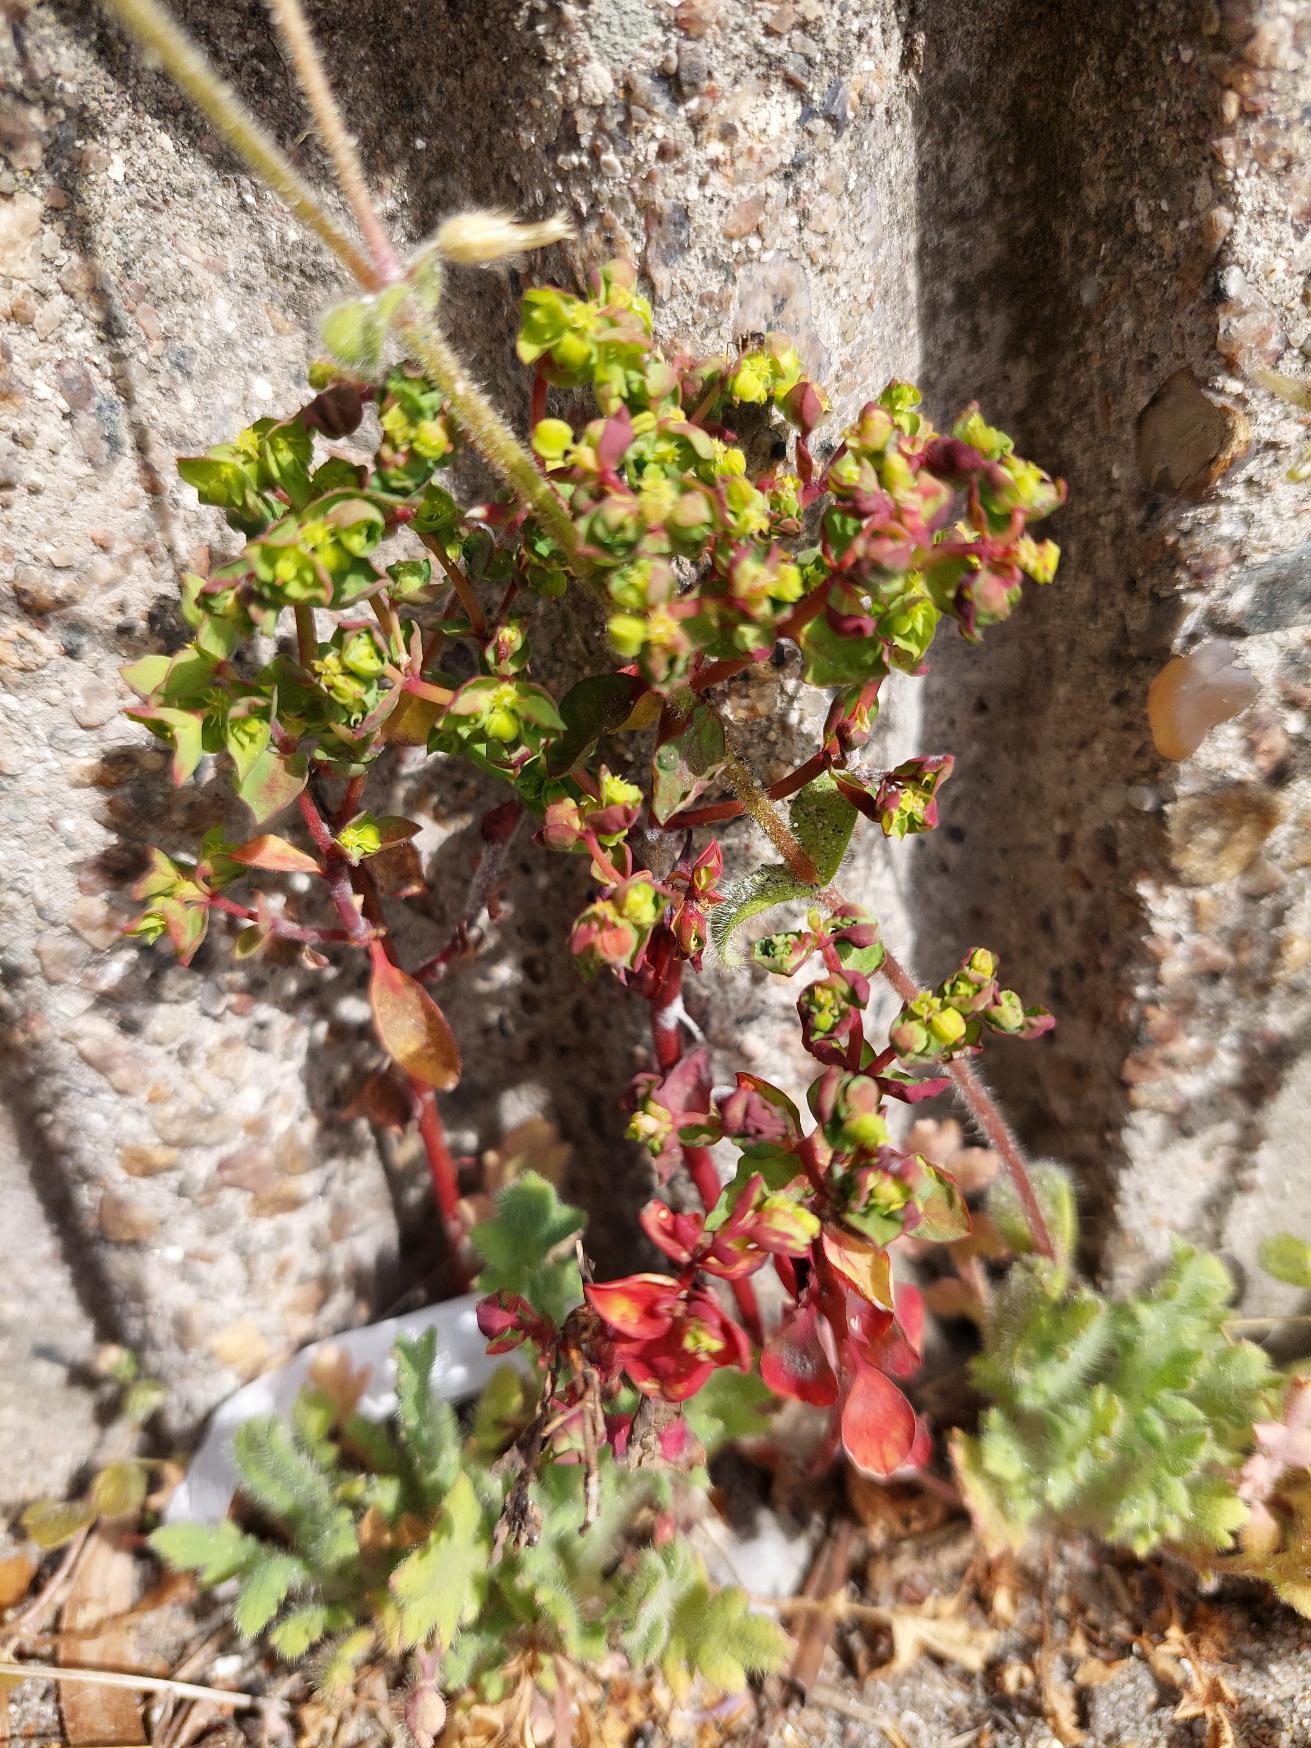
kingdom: Plantae
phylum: Tracheophyta
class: Magnoliopsida
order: Malpighiales
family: Euphorbiaceae
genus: Euphorbia
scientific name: Euphorbia peplus
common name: Gaffel-vortemælk
